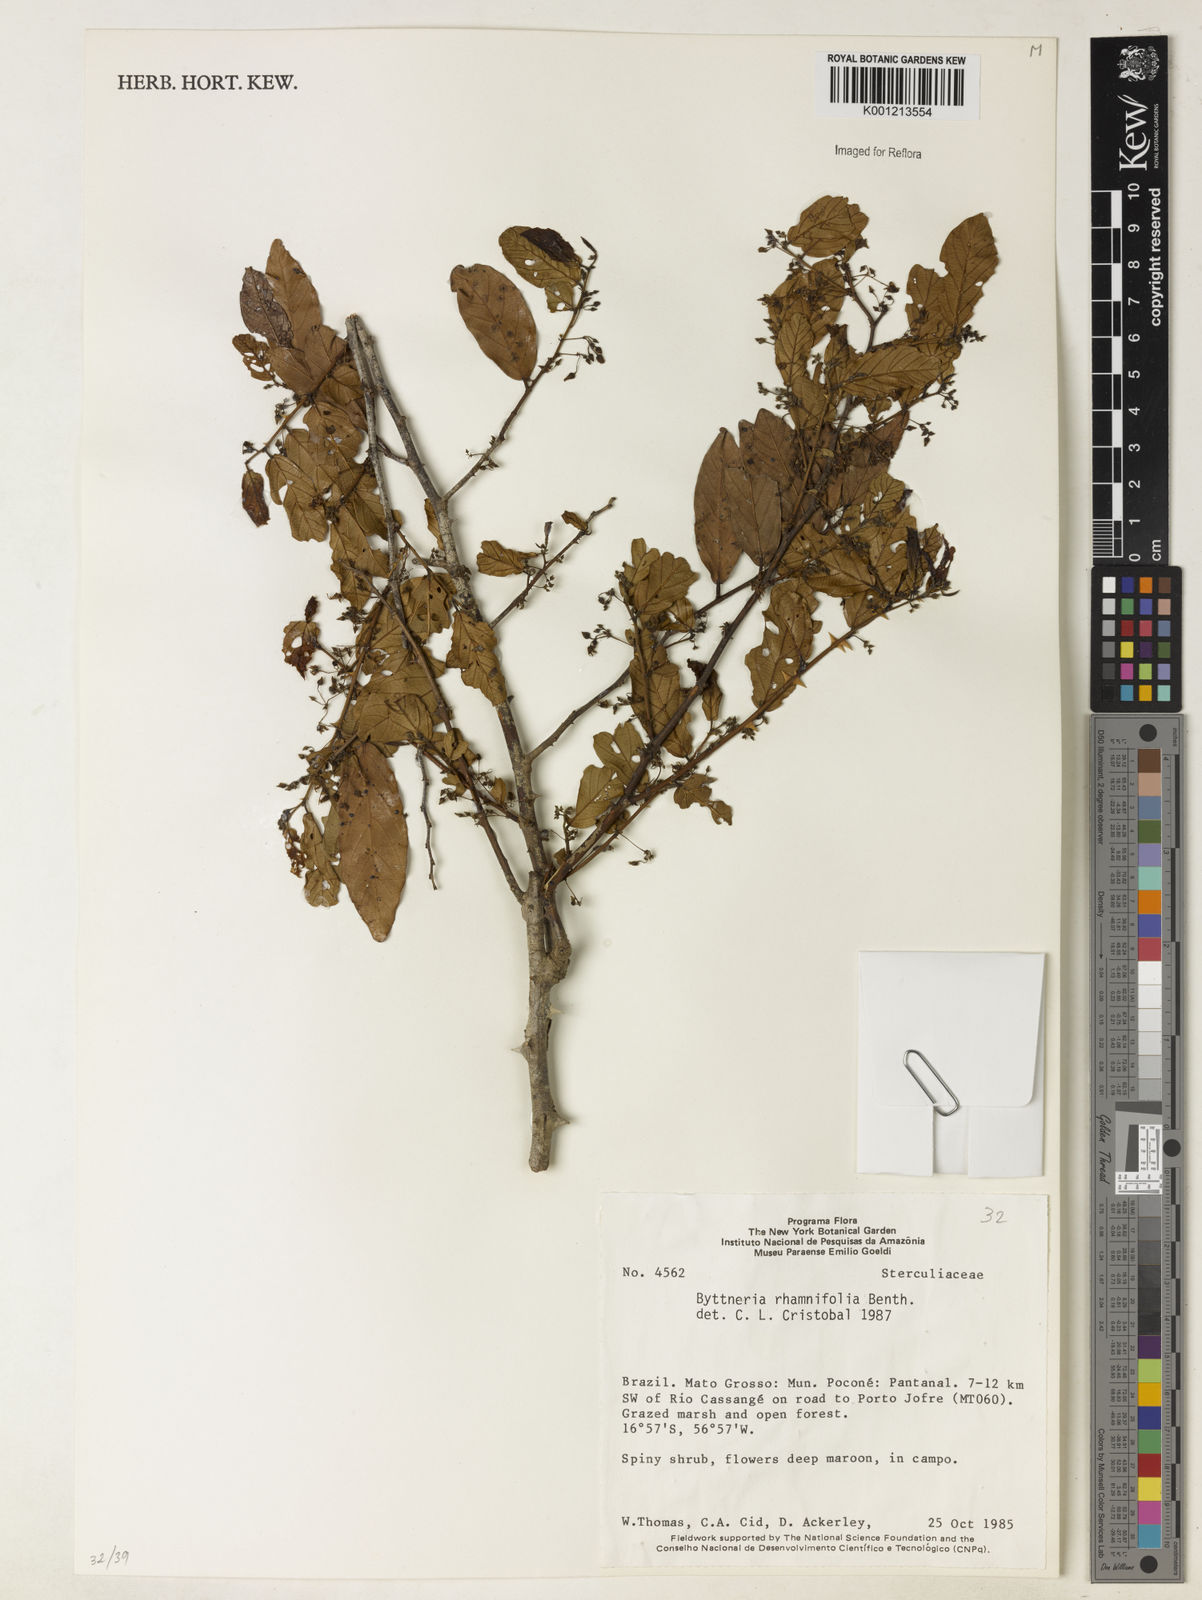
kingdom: Plantae
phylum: Tracheophyta
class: Magnoliopsida
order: Malvales
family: Malvaceae
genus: Byttneria
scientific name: Byttneria rhamnifolia
